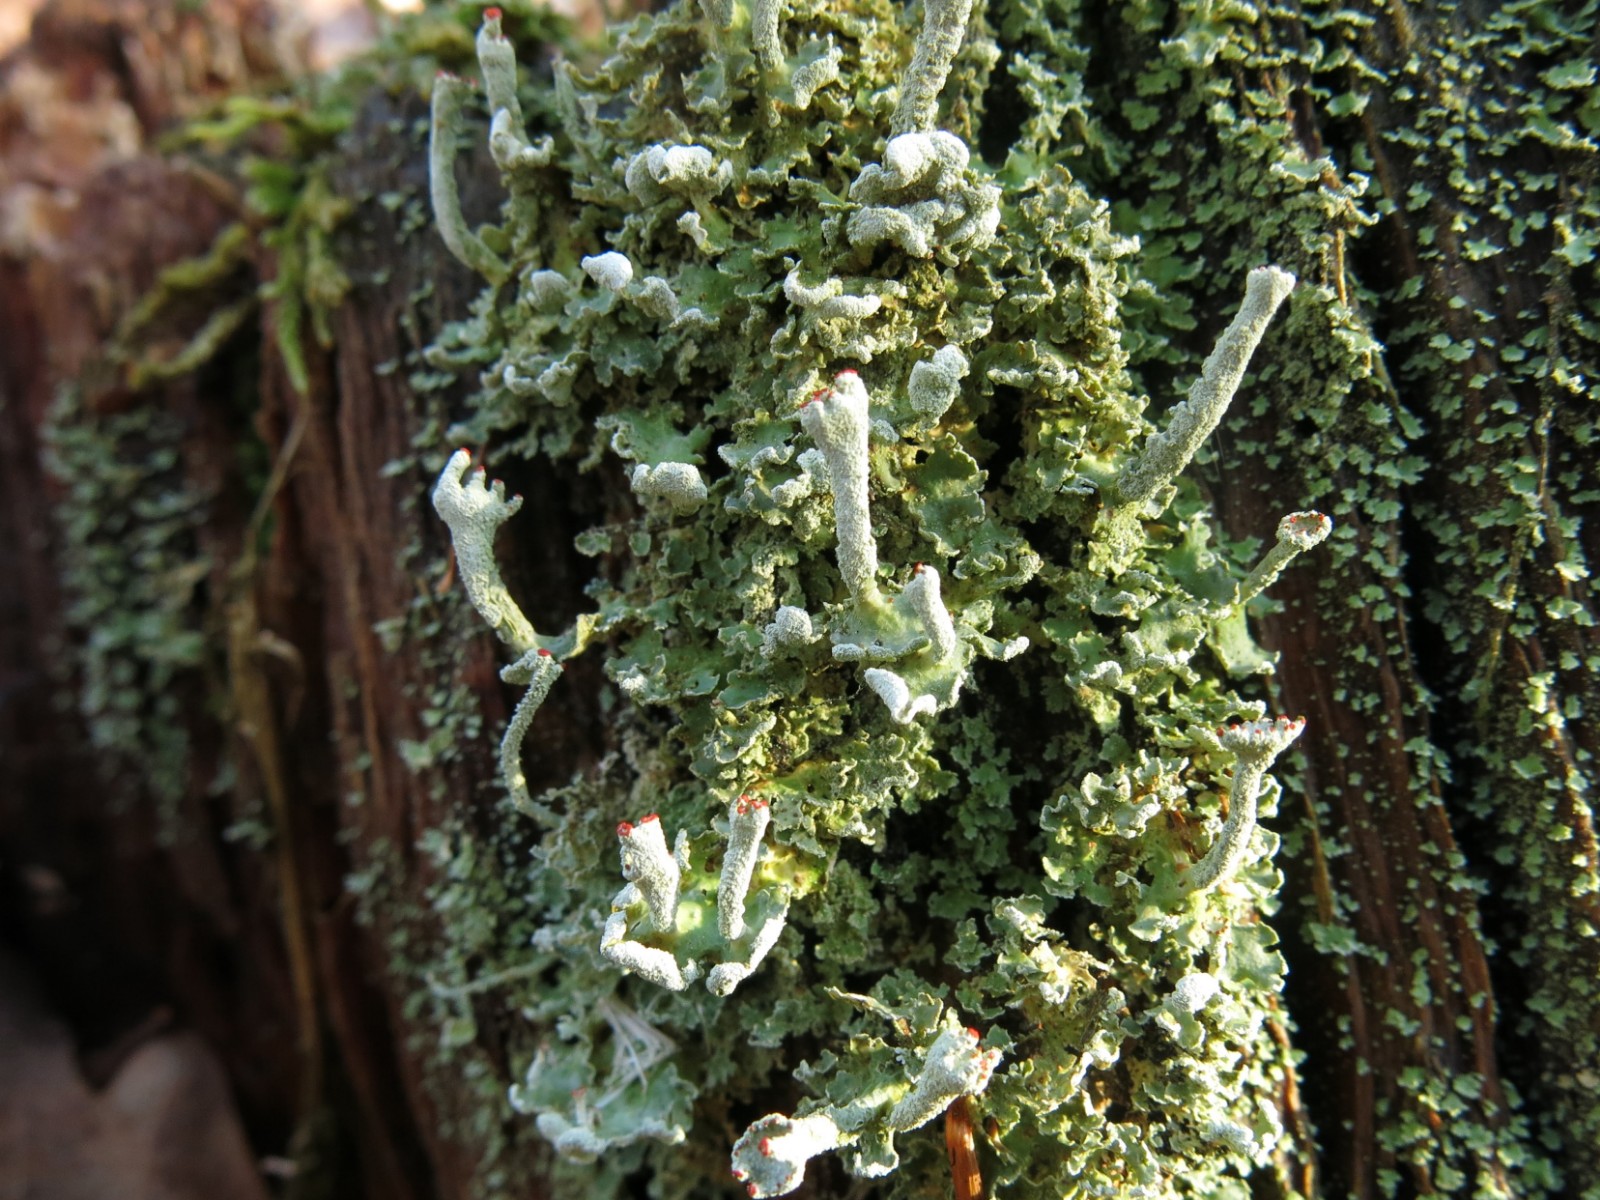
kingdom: Fungi
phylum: Ascomycota
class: Lecanoromycetes
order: Lecanorales
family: Cladoniaceae
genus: Cladonia
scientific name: Cladonia digitata
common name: finger-bægerlav
